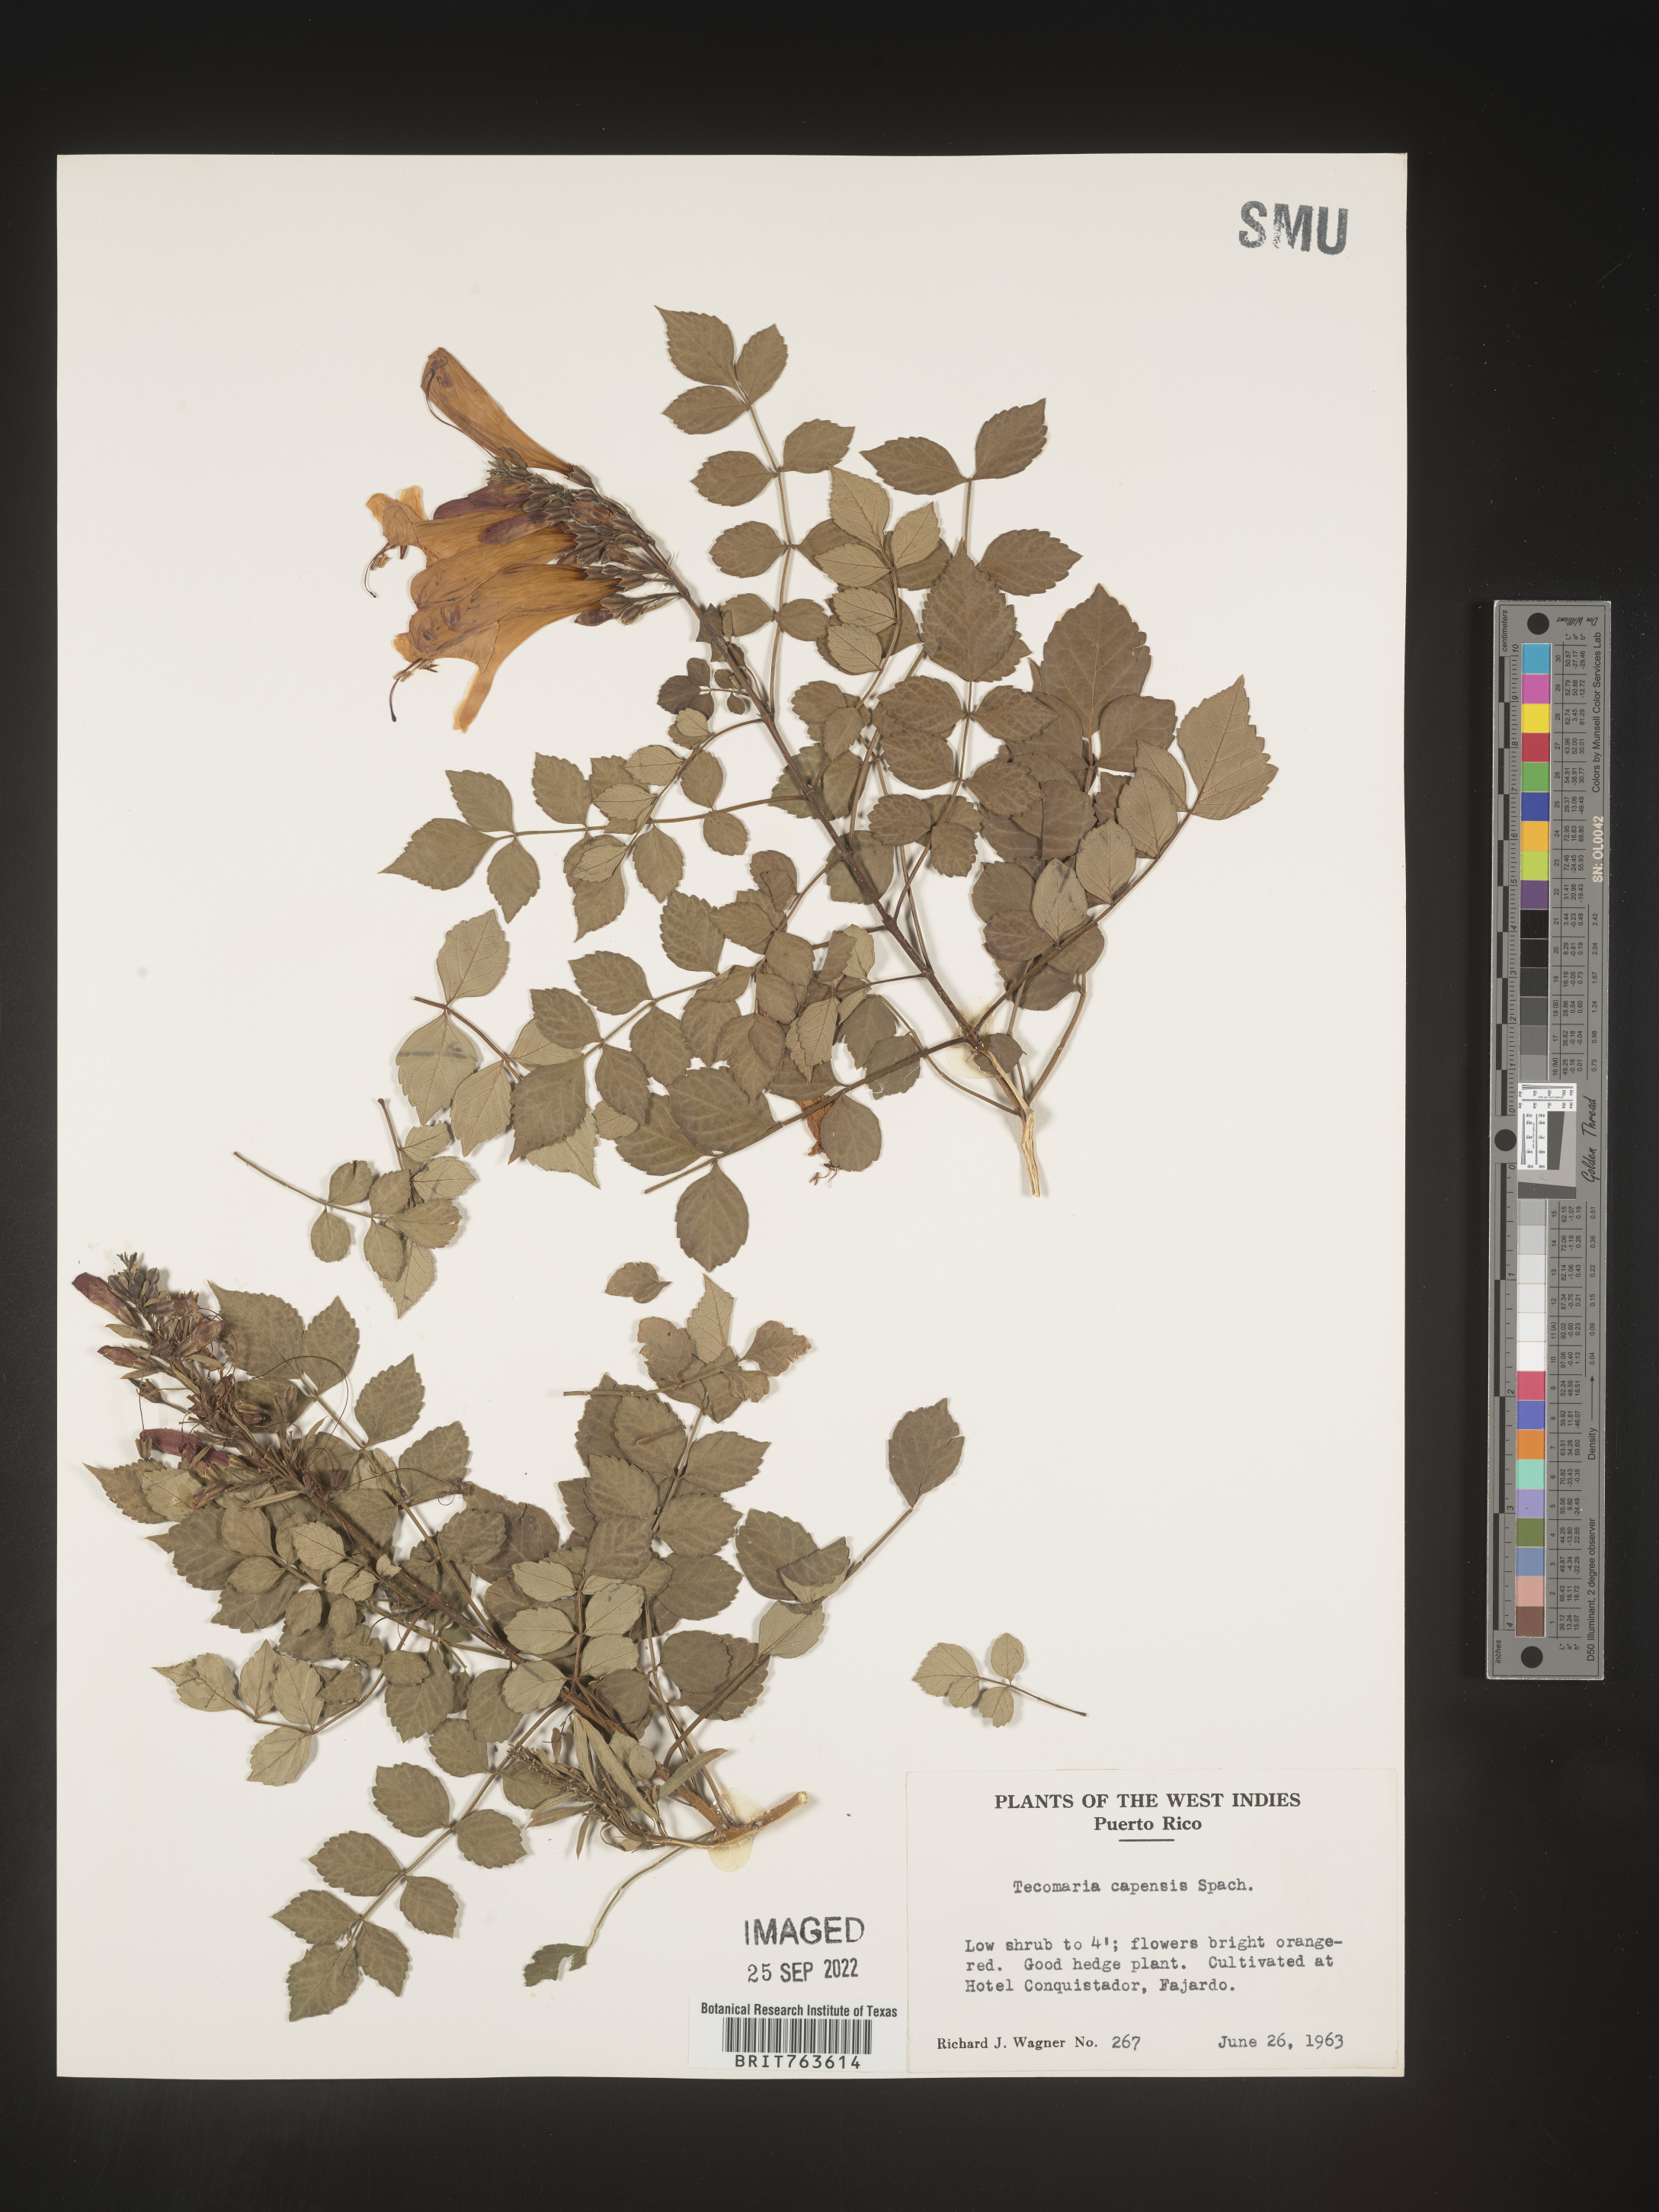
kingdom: Plantae
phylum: Tracheophyta
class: Magnoliopsida
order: Lamiales
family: Bignoniaceae
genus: Tecomaria
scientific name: Tecomaria
